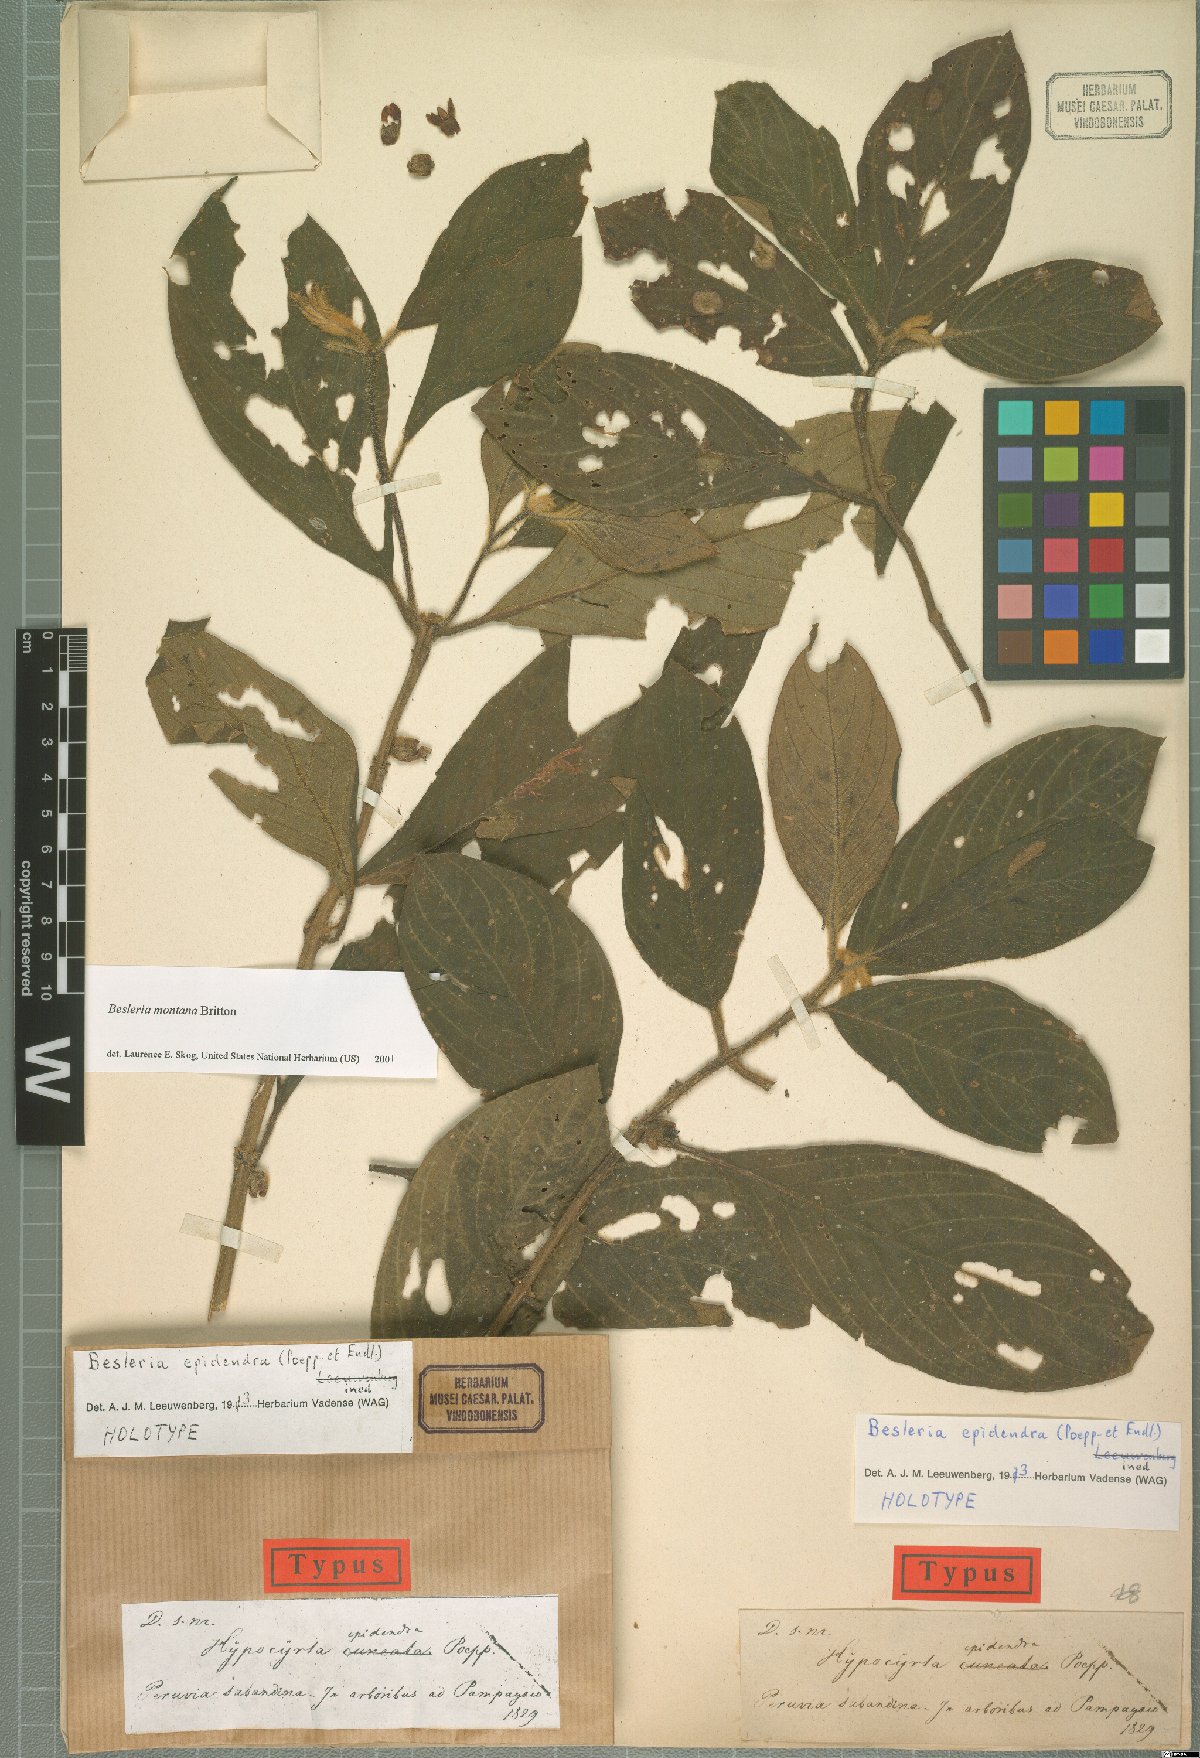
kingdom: Plantae
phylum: Tracheophyta
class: Magnoliopsida
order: Lamiales
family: Gesneriaceae
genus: Besleria
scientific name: Besleria montana
